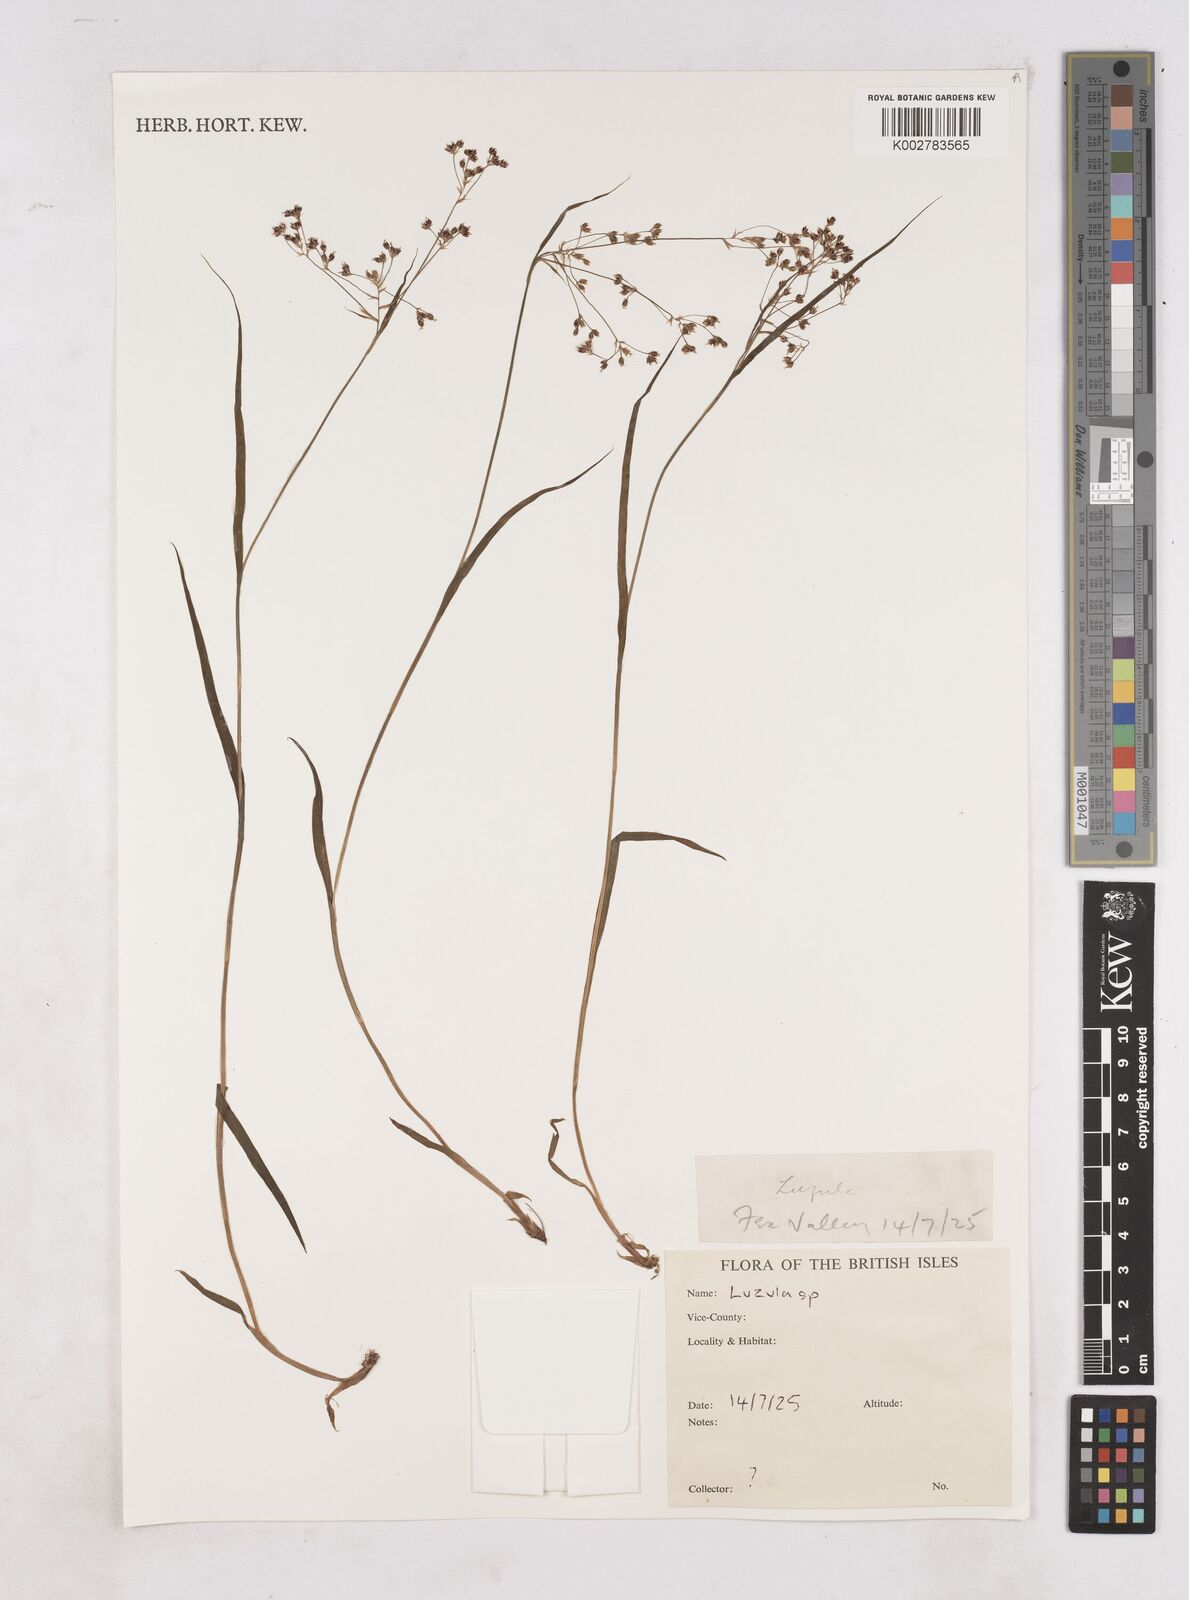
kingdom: Plantae
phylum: Tracheophyta
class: Liliopsida
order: Poales
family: Juncaceae
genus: Luzula
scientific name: Luzula
